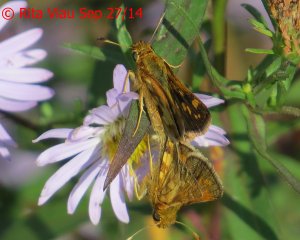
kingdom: Animalia
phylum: Arthropoda
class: Insecta
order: Lepidoptera
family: Hesperiidae
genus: Polites
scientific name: Polites coras
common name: Peck's Skipper
